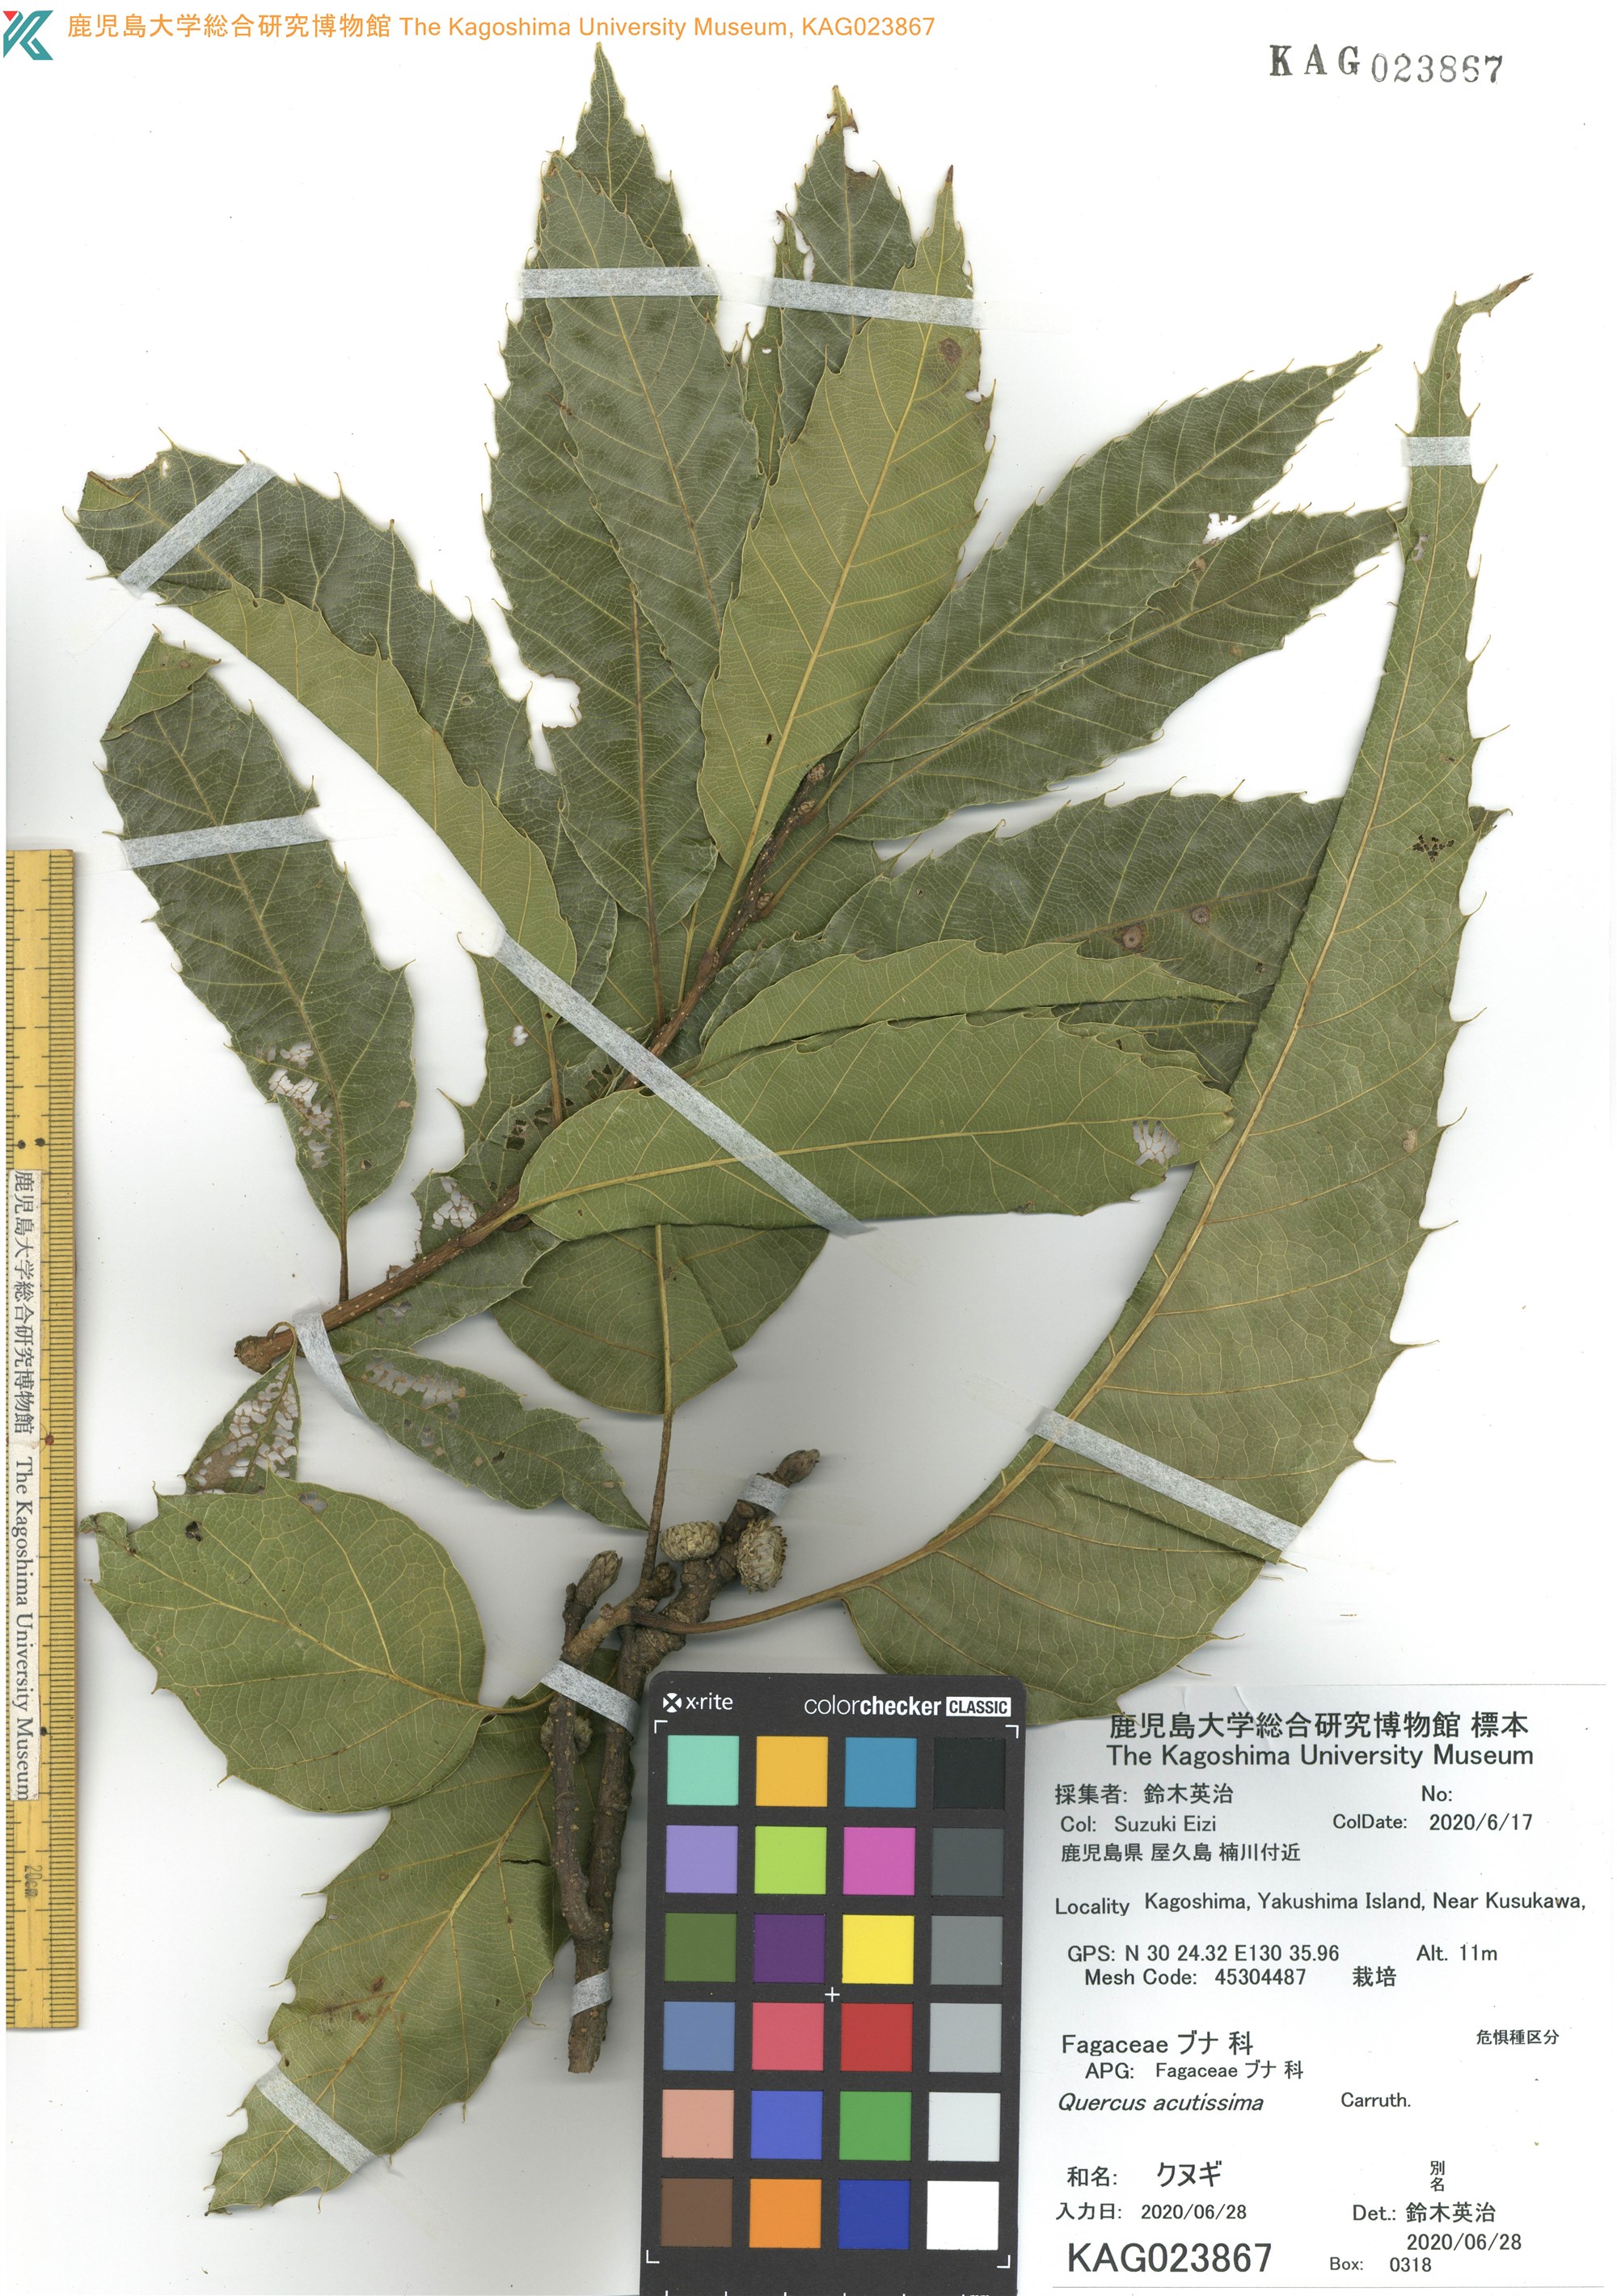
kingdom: Plantae
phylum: Tracheophyta
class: Magnoliopsida
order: Fagales
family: Fagaceae
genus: Quercus
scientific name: Quercus acutissima
